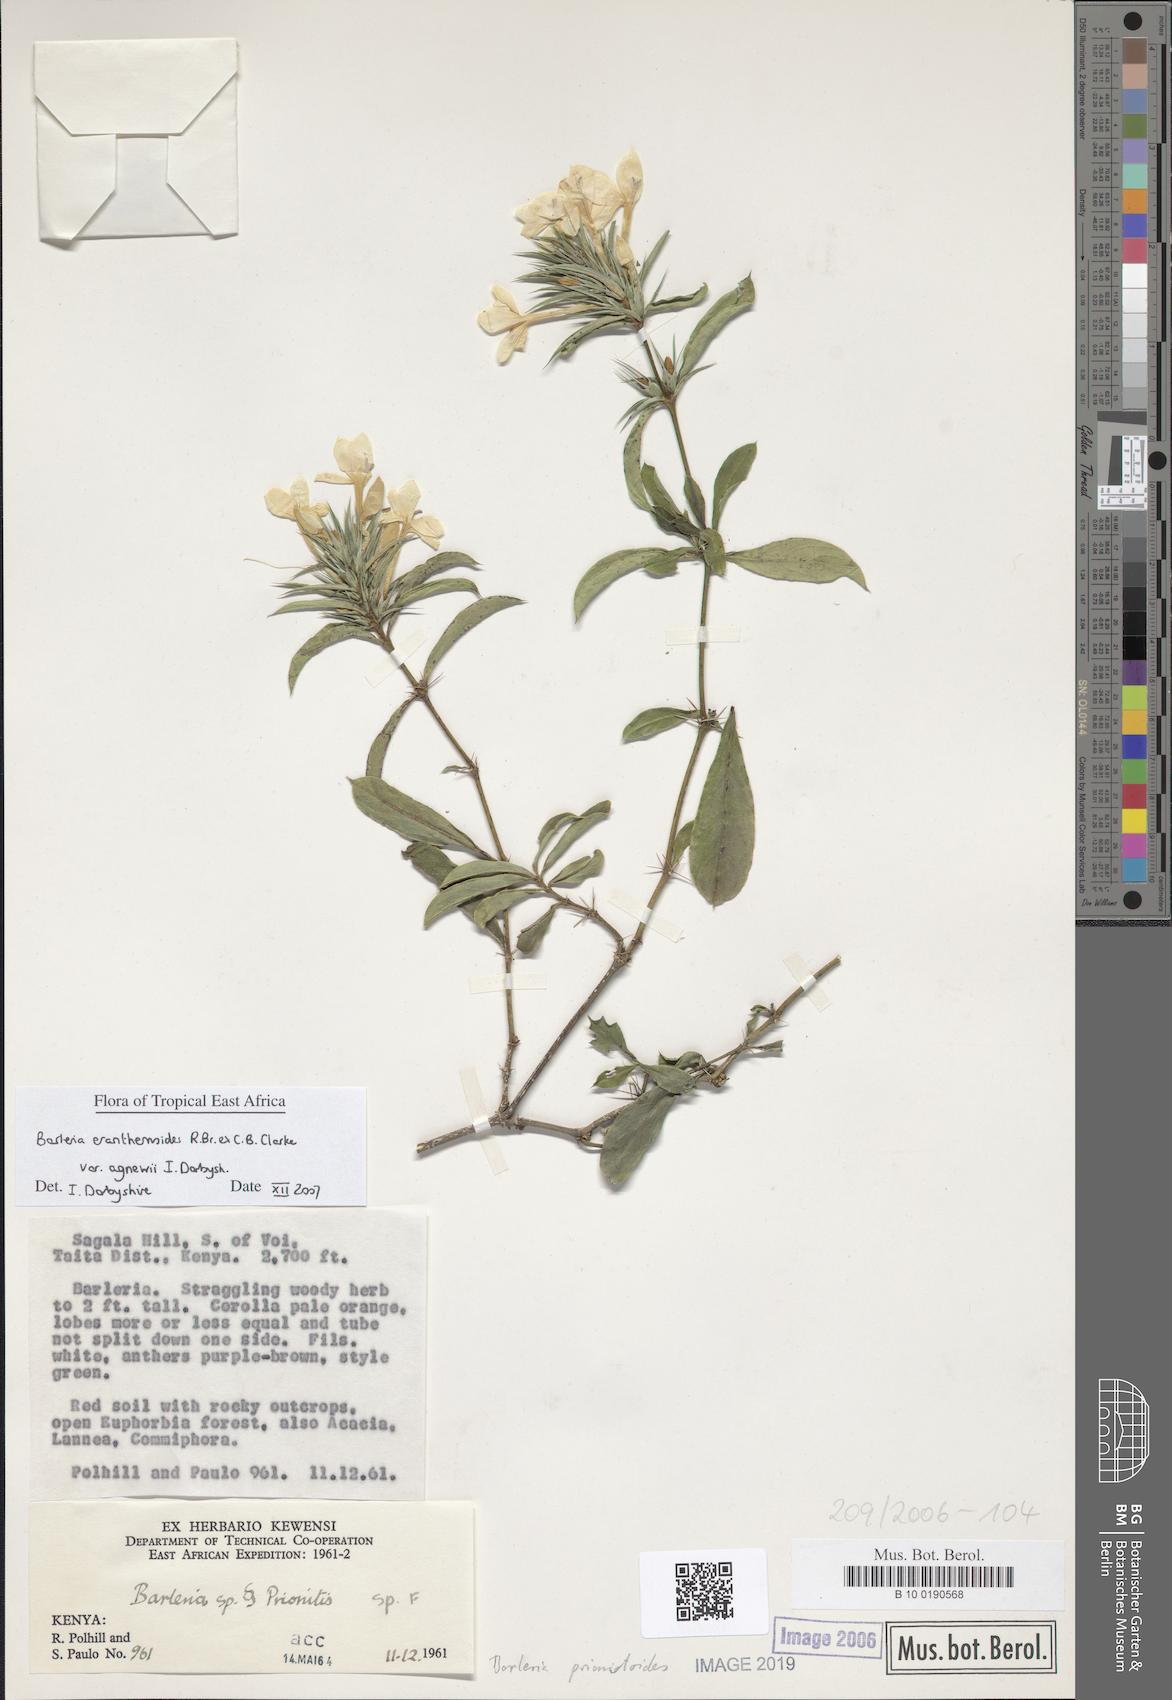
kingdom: Plantae
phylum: Tracheophyta
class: Magnoliopsida
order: Lamiales
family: Acanthaceae
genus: Barleria
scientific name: Barleria prionitis
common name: Barleria
